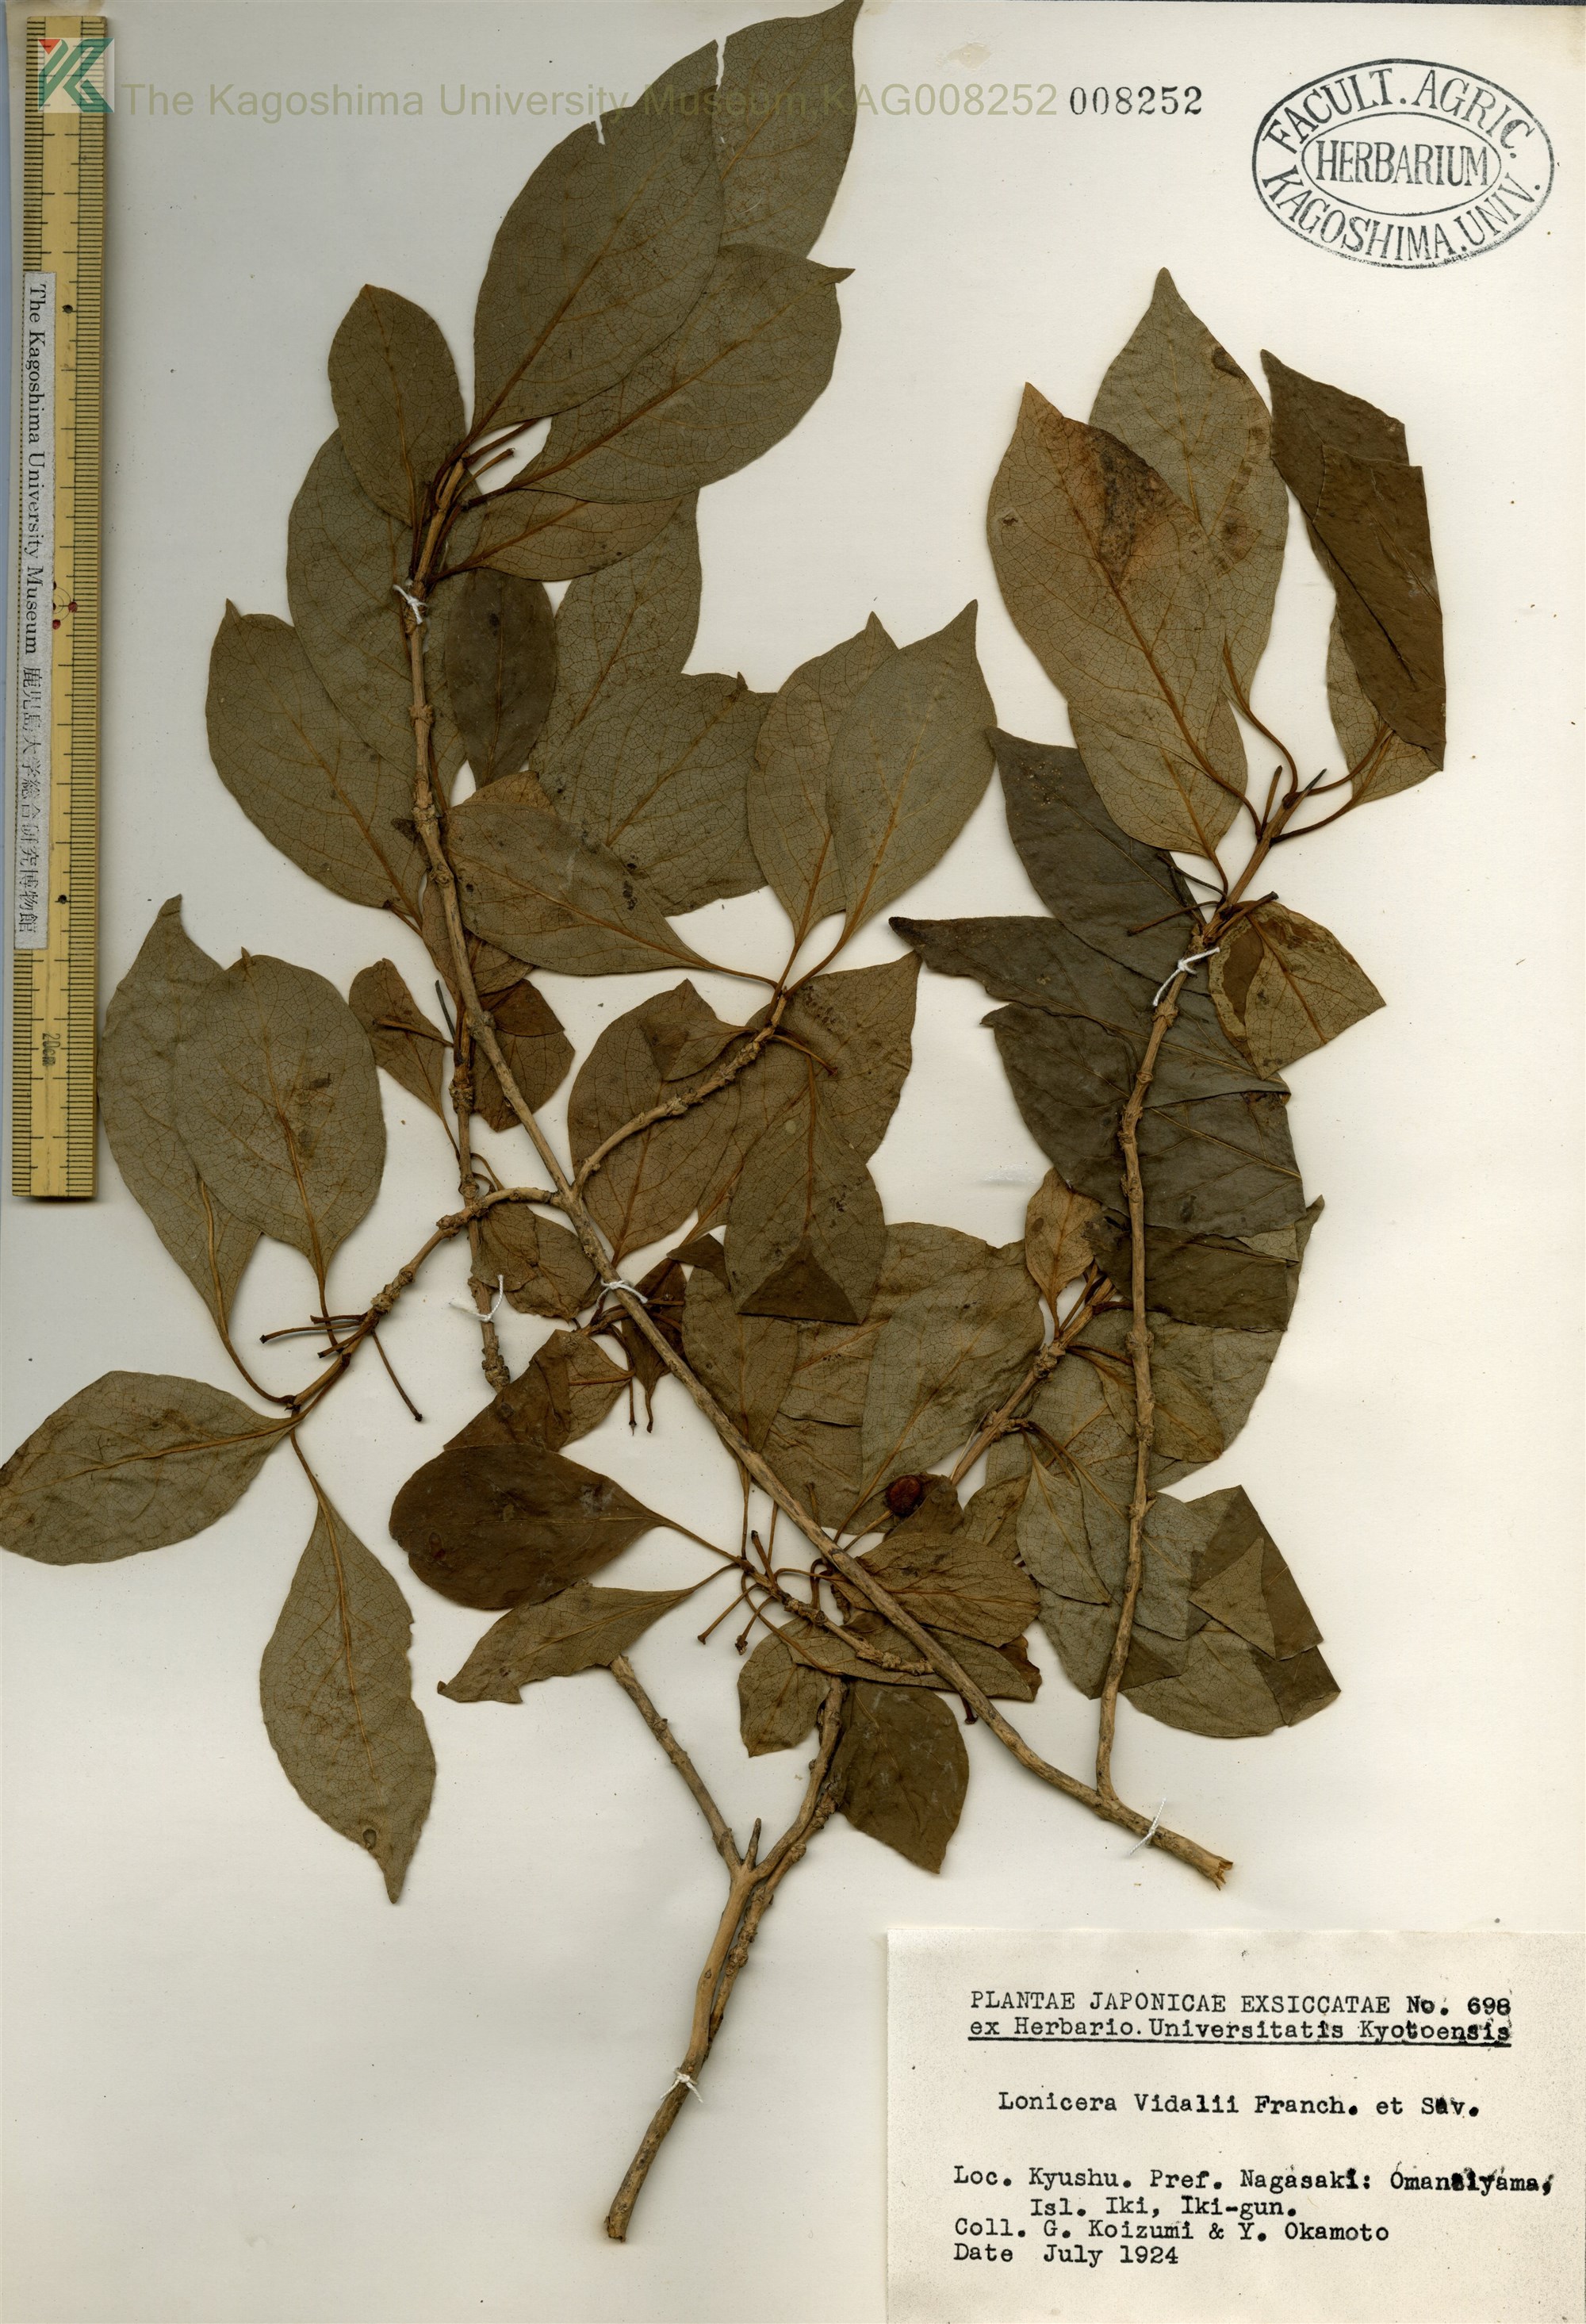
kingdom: Plantae
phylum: Tracheophyta
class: Magnoliopsida
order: Dipsacales
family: Caprifoliaceae
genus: Lonicera
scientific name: Lonicera vidalii
